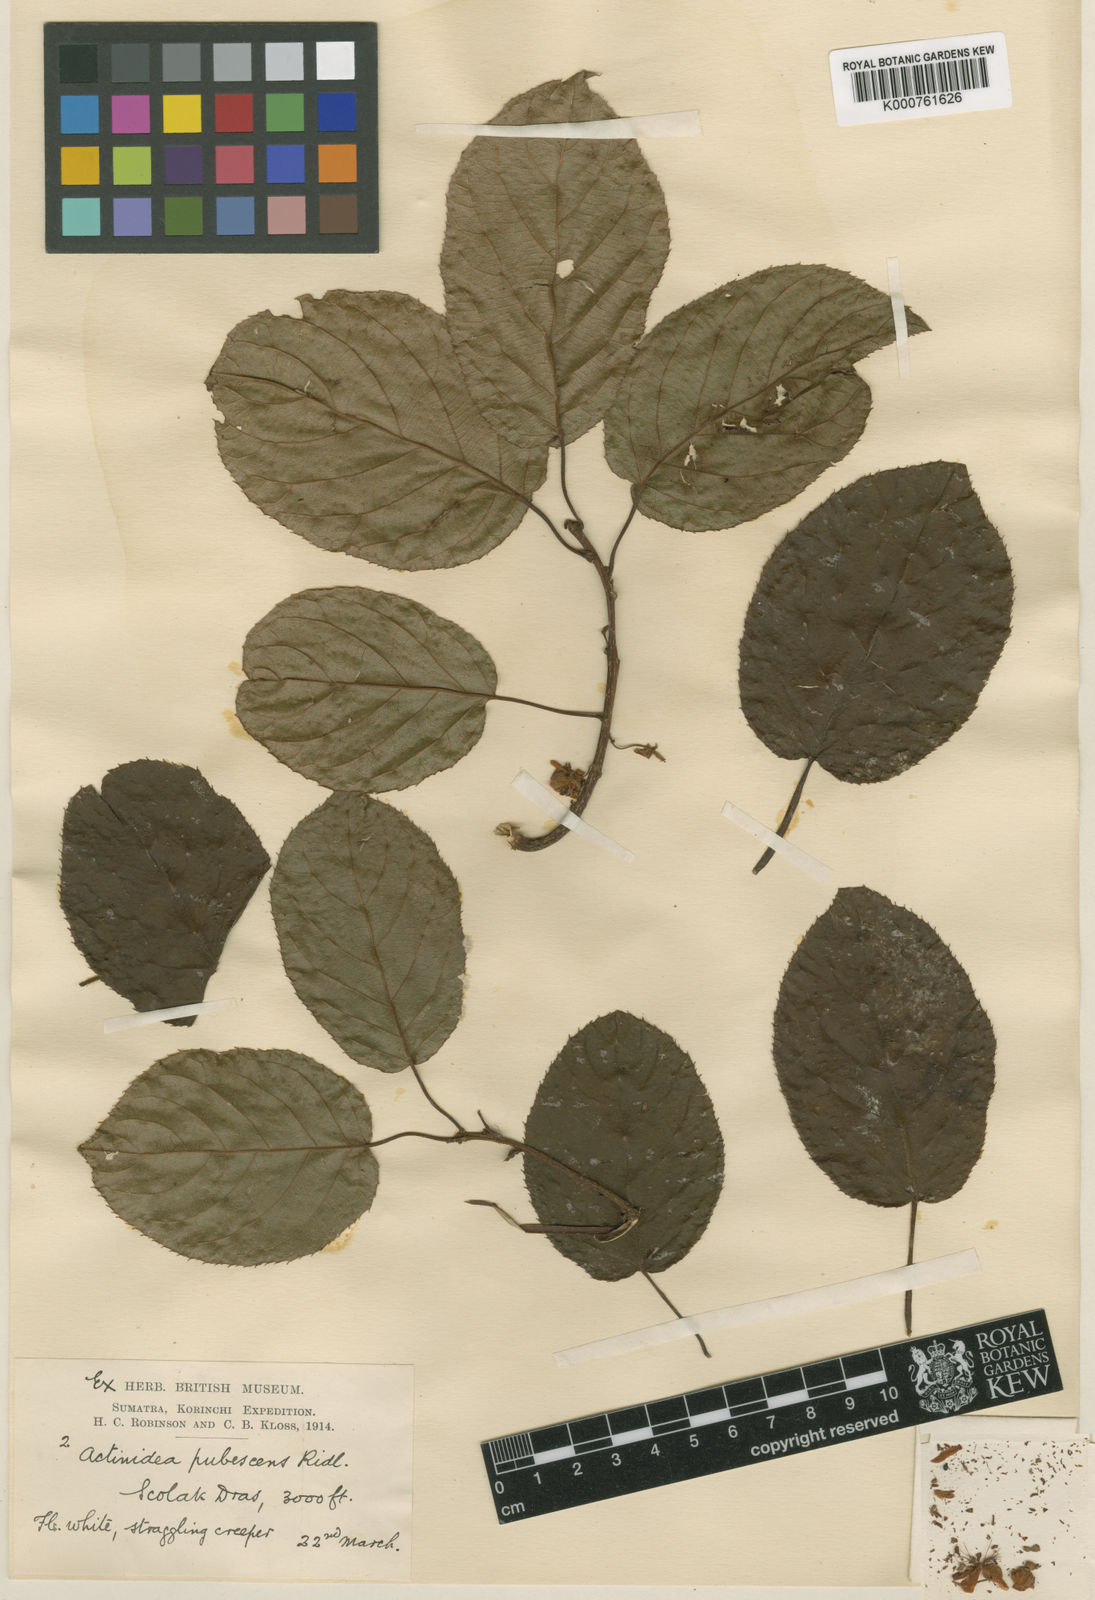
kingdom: Plantae
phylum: Tracheophyta
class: Magnoliopsida
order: Ericales
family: Actinidiaceae
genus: Actinidia
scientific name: Actinidia indochinensis
